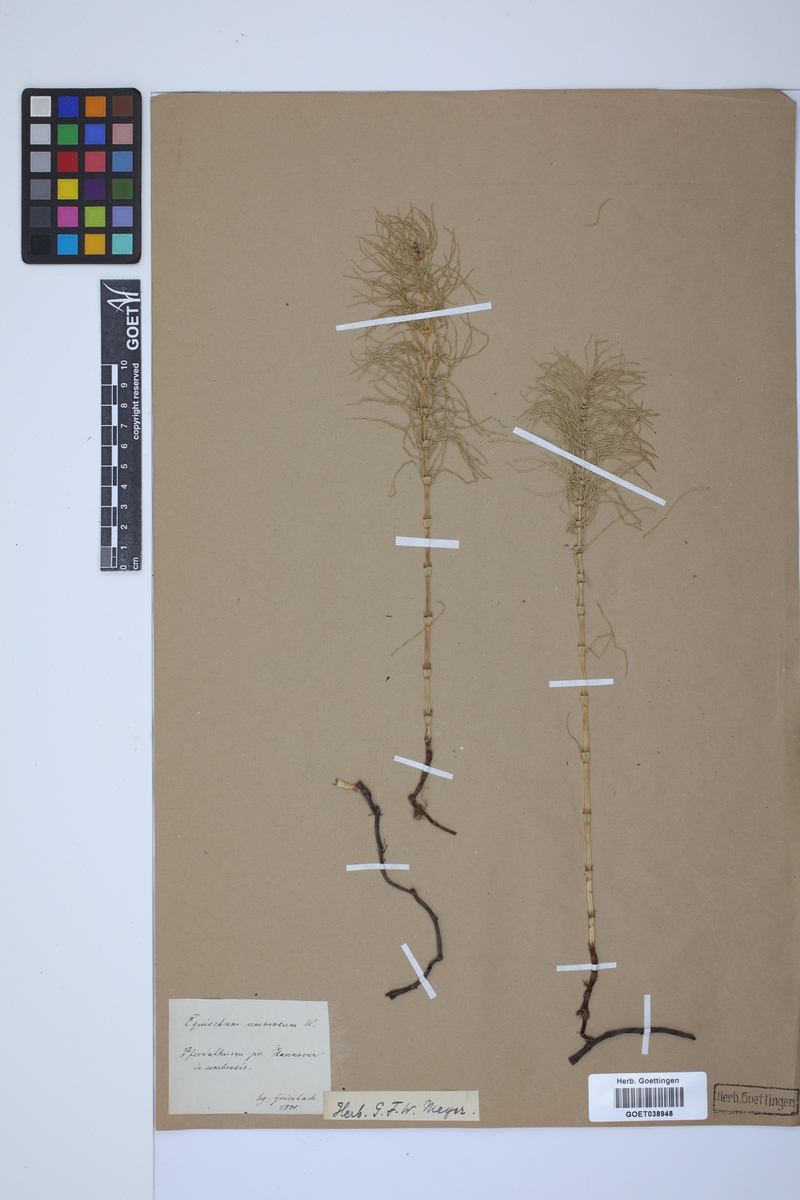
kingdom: Plantae
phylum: Tracheophyta
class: Polypodiopsida
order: Equisetales
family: Equisetaceae
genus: Equisetum
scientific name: Equisetum pratense
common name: Meadow horsetail
